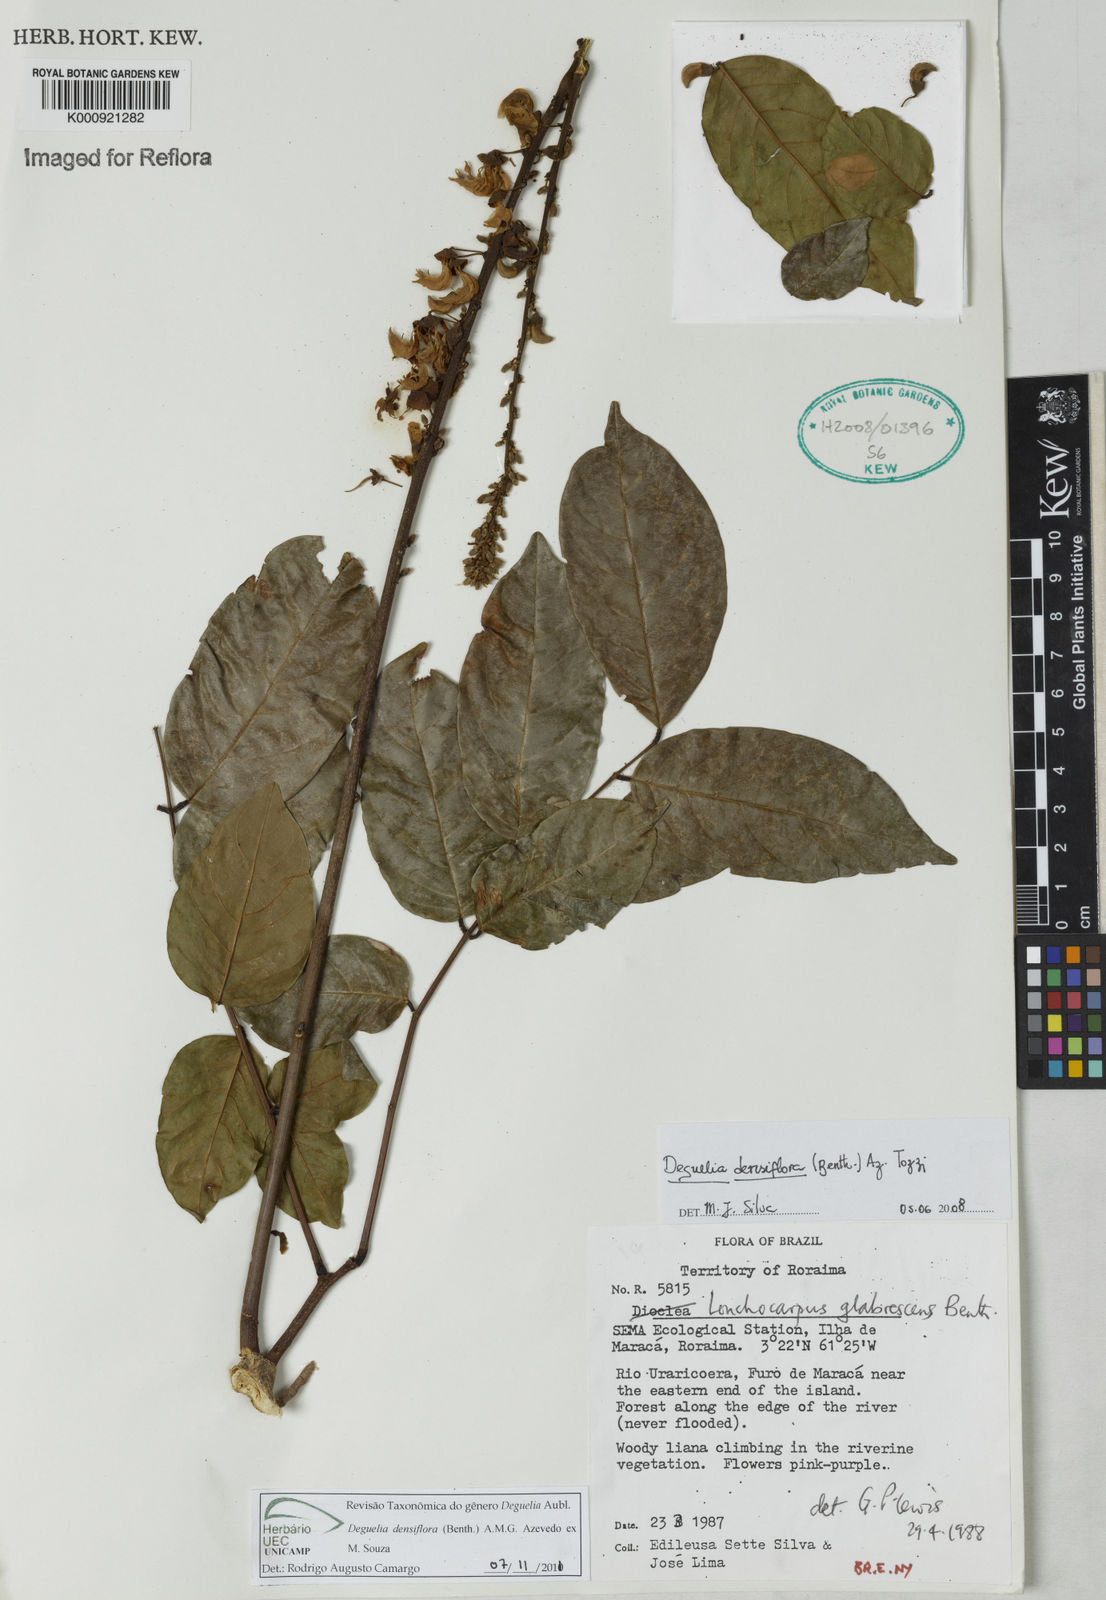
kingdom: Plantae
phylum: Tracheophyta
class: Magnoliopsida
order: Fabales
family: Fabaceae
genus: Deguelia
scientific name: Deguelia
